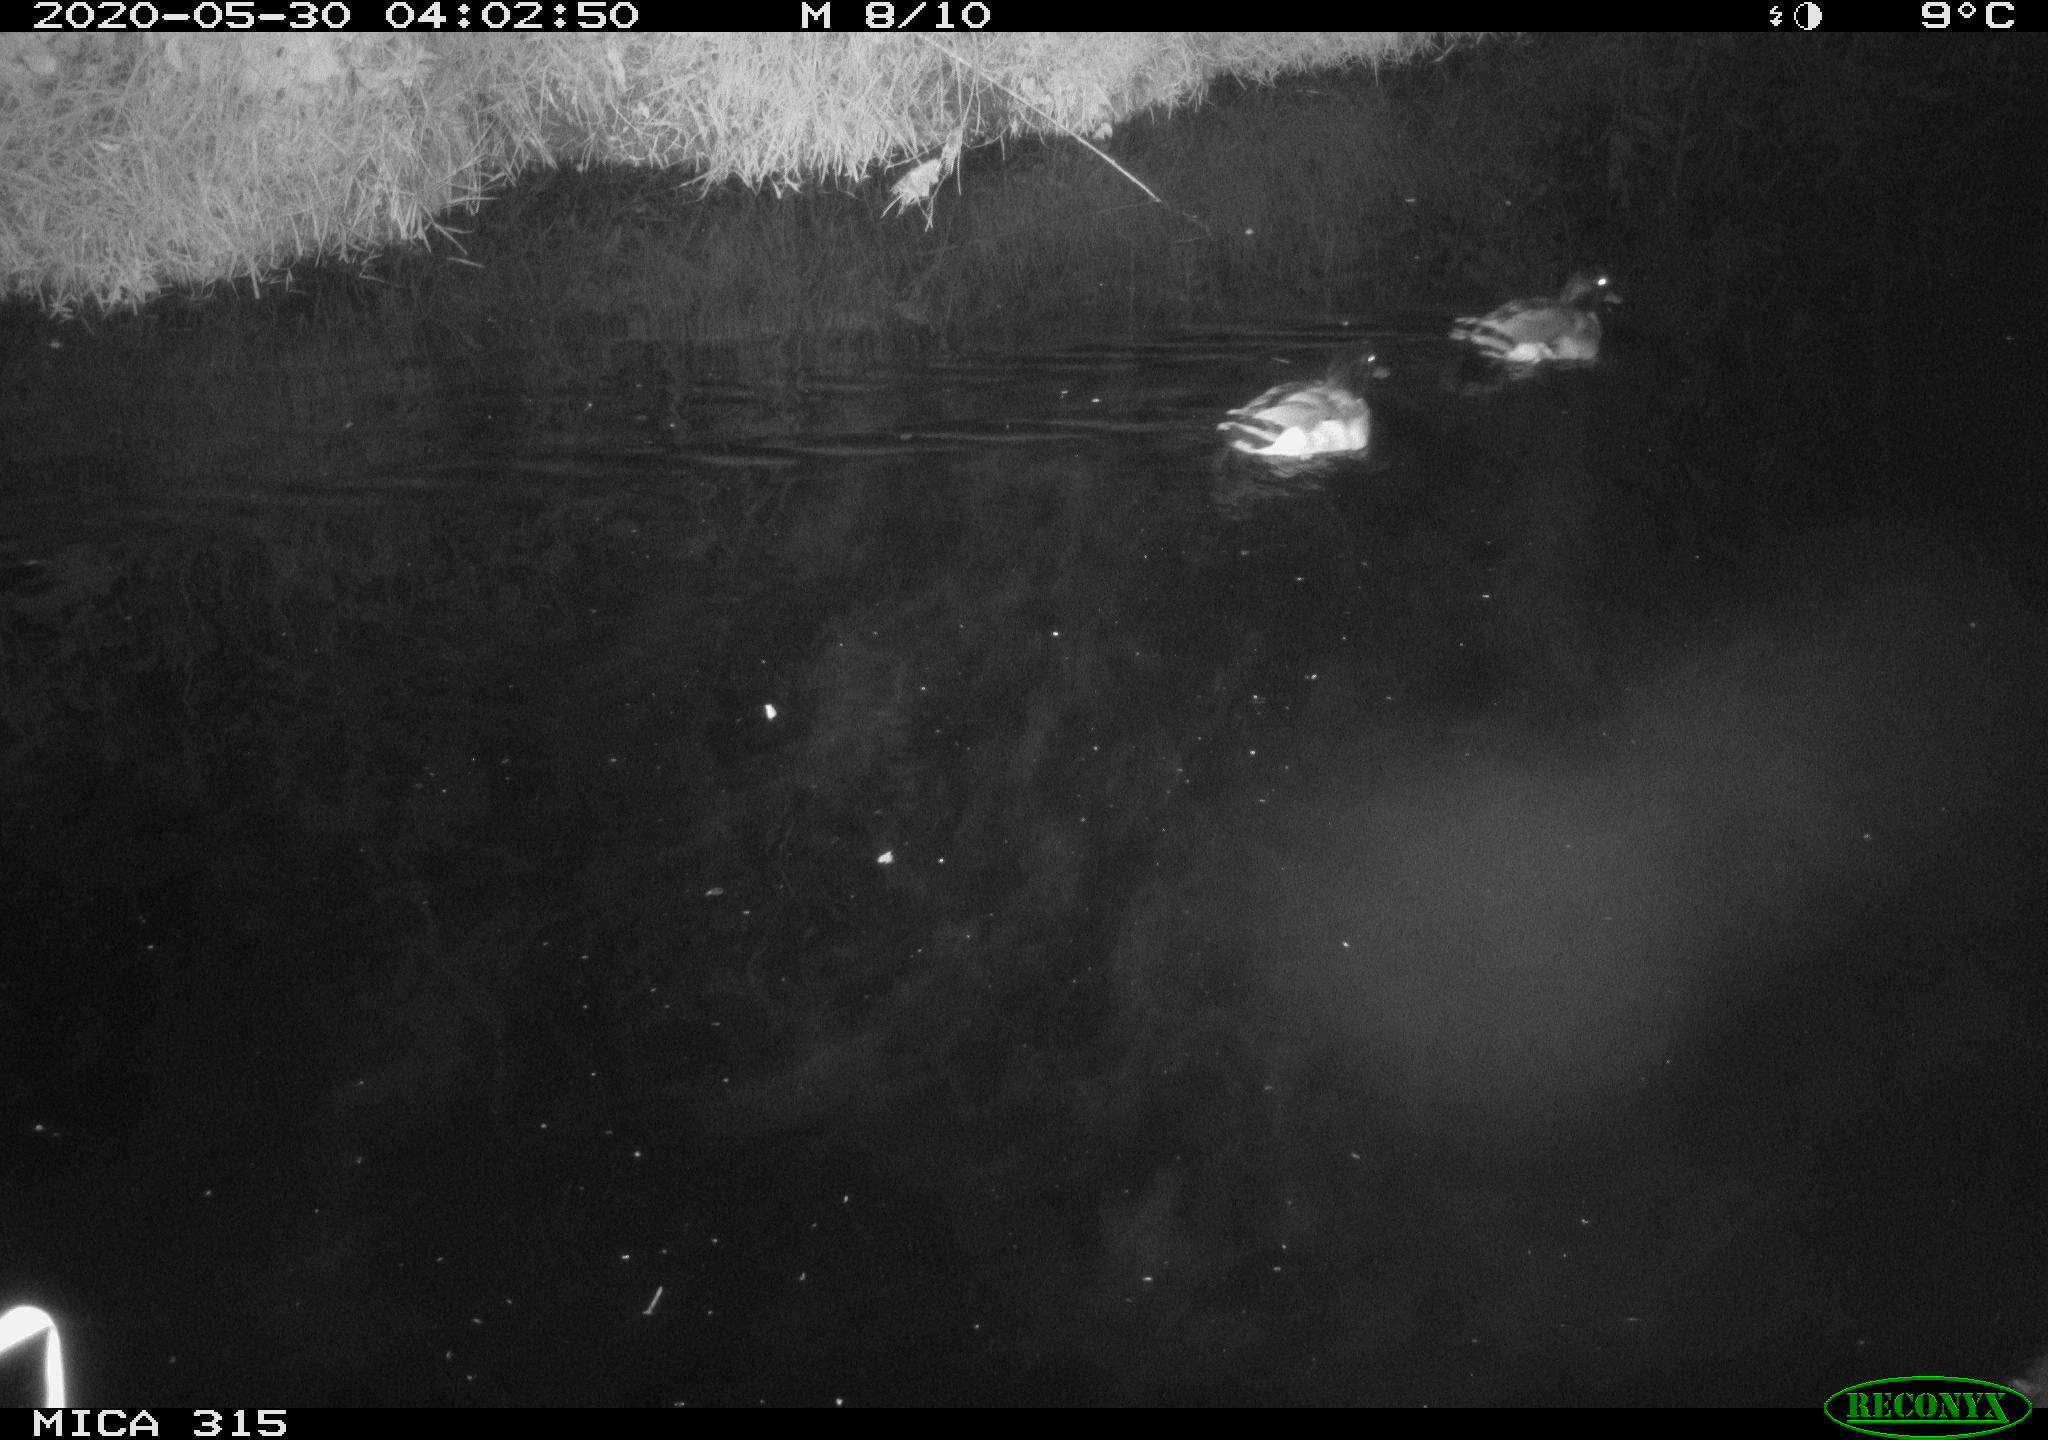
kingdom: Animalia
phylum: Chordata
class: Aves
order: Anseriformes
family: Anatidae
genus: Anas
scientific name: Anas platyrhynchos
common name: Mallard
